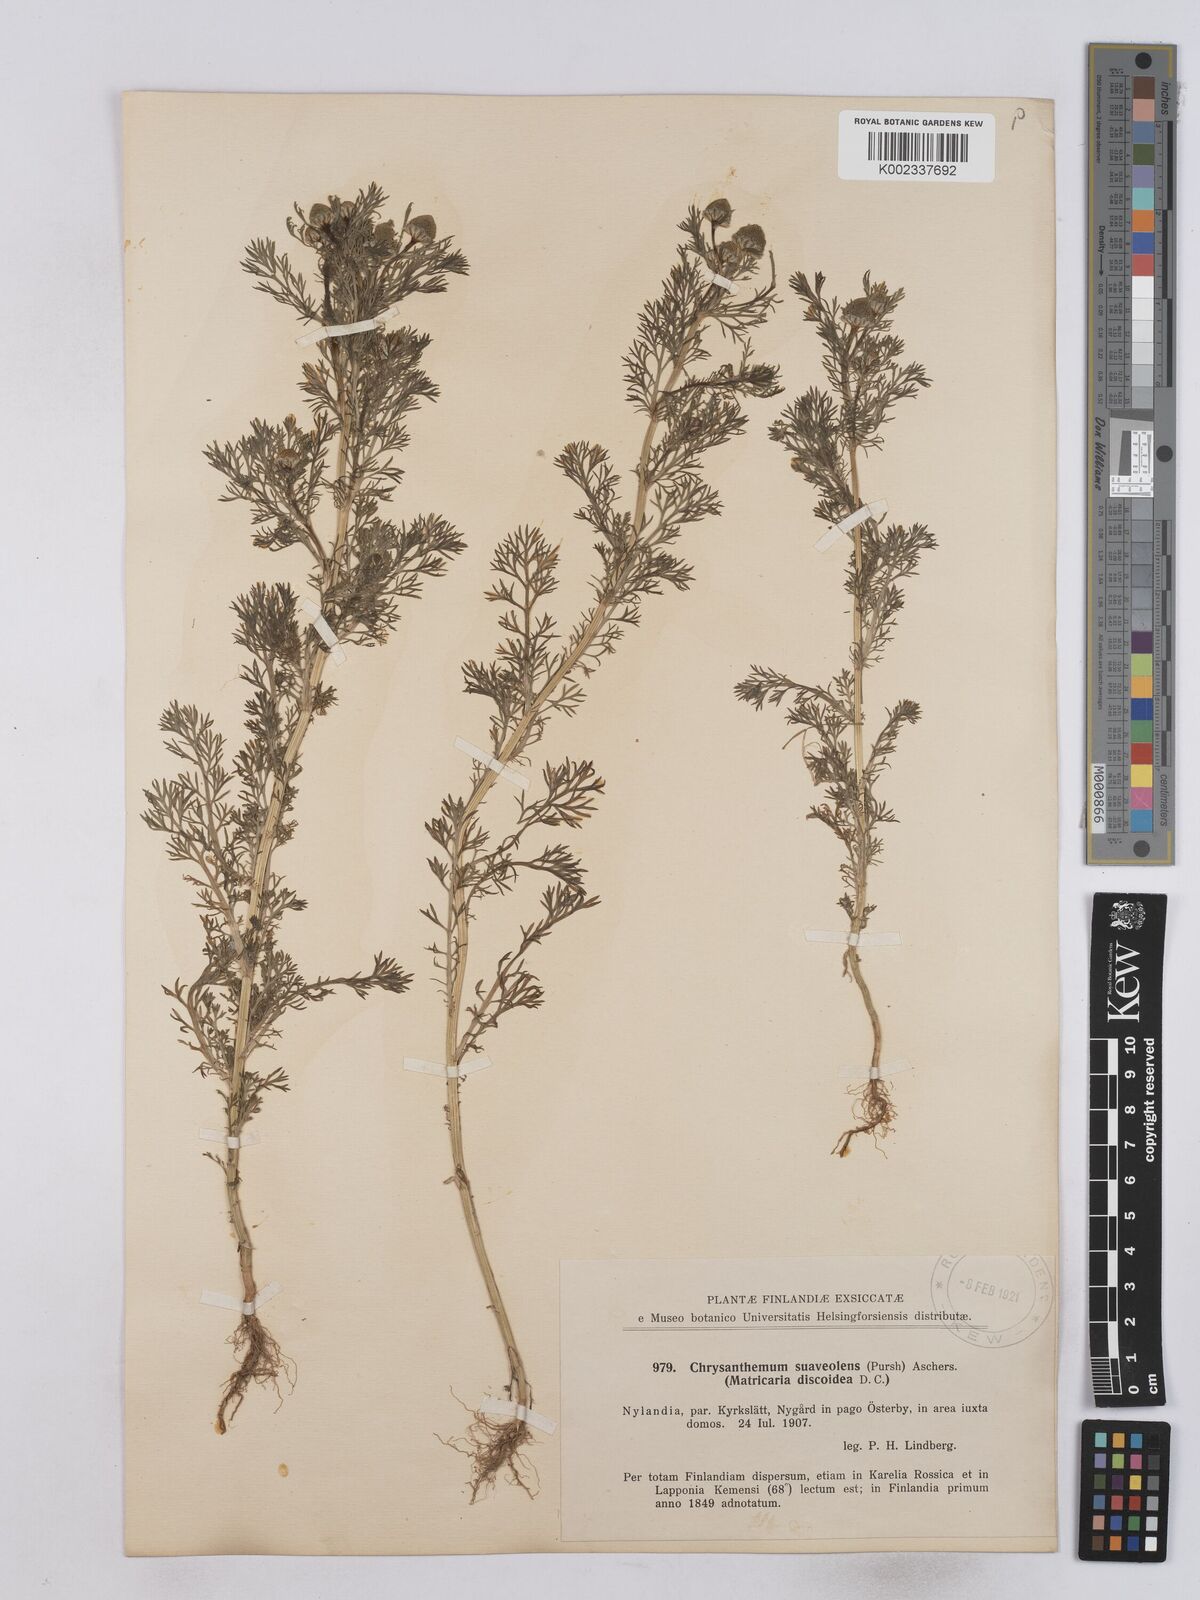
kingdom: Plantae
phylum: Tracheophyta
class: Magnoliopsida
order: Asterales
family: Asteraceae
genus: Matricaria
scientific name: Matricaria discoidea
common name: Disc mayweed
